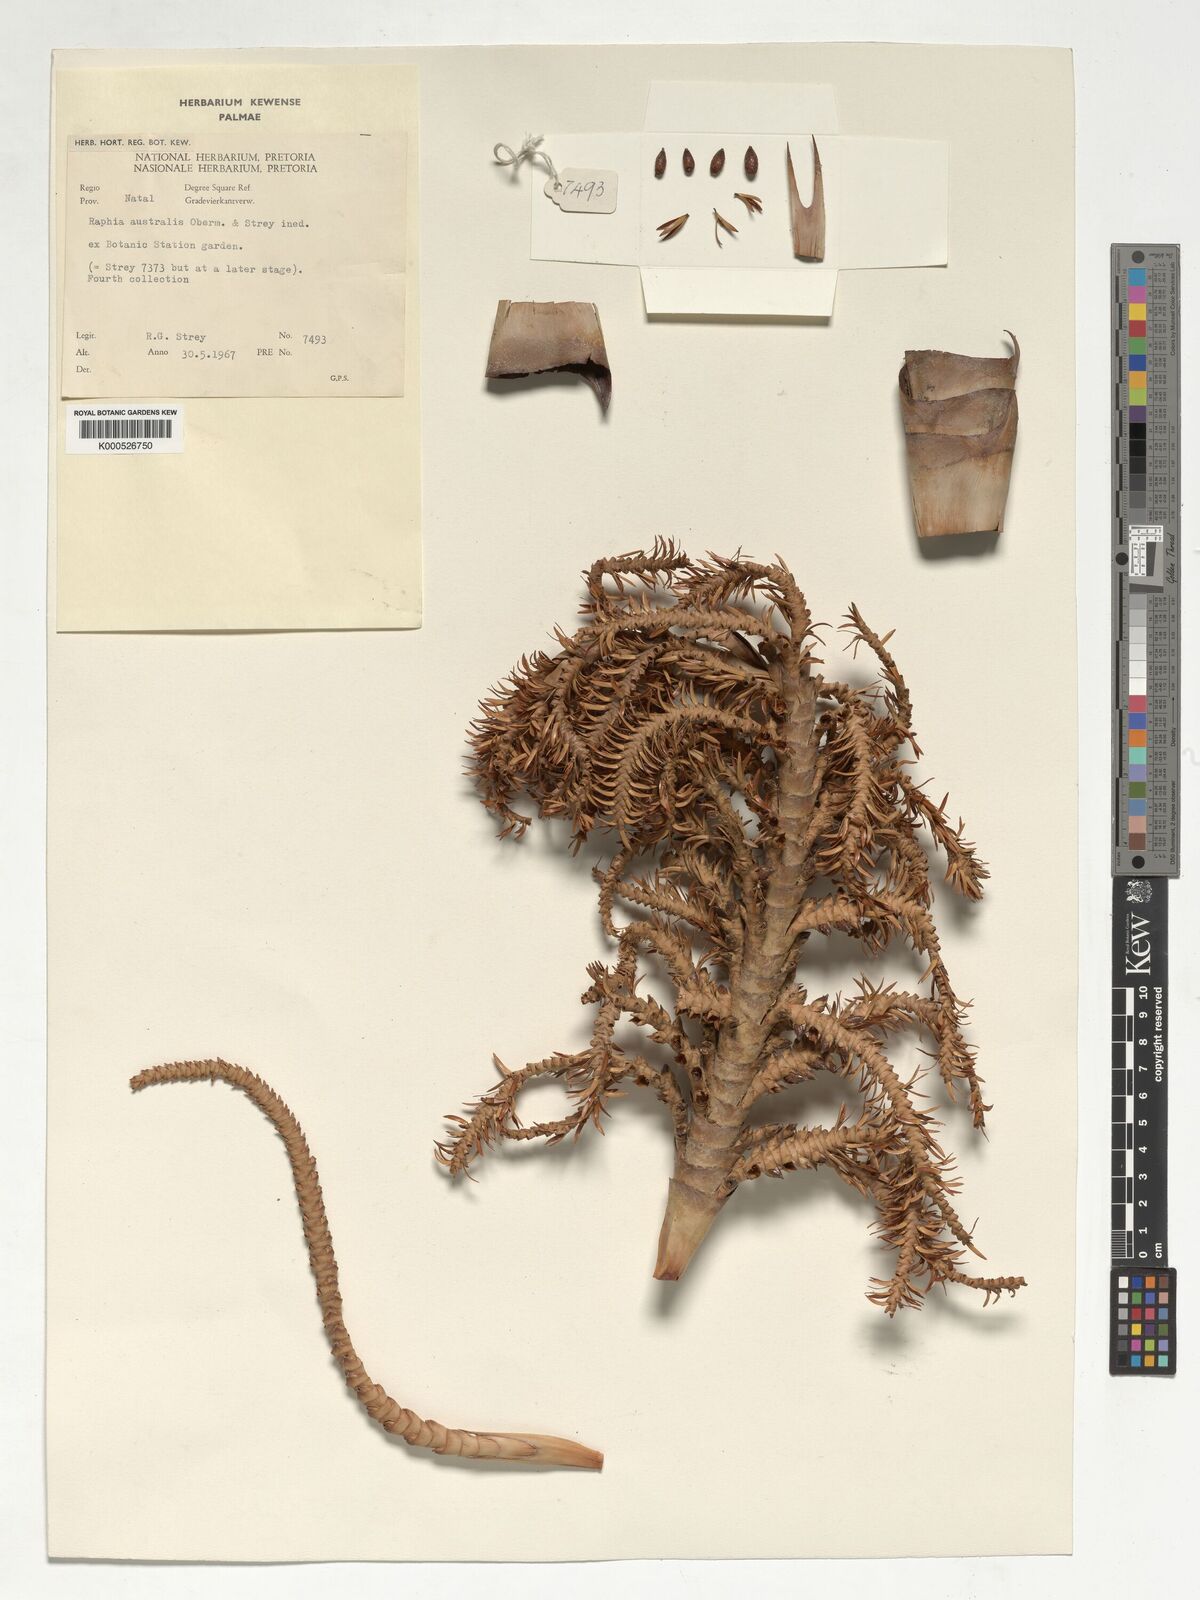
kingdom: Plantae
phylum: Tracheophyta
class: Liliopsida
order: Arecales
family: Arecaceae
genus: Raphia
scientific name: Raphia australis
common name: Giant palm
